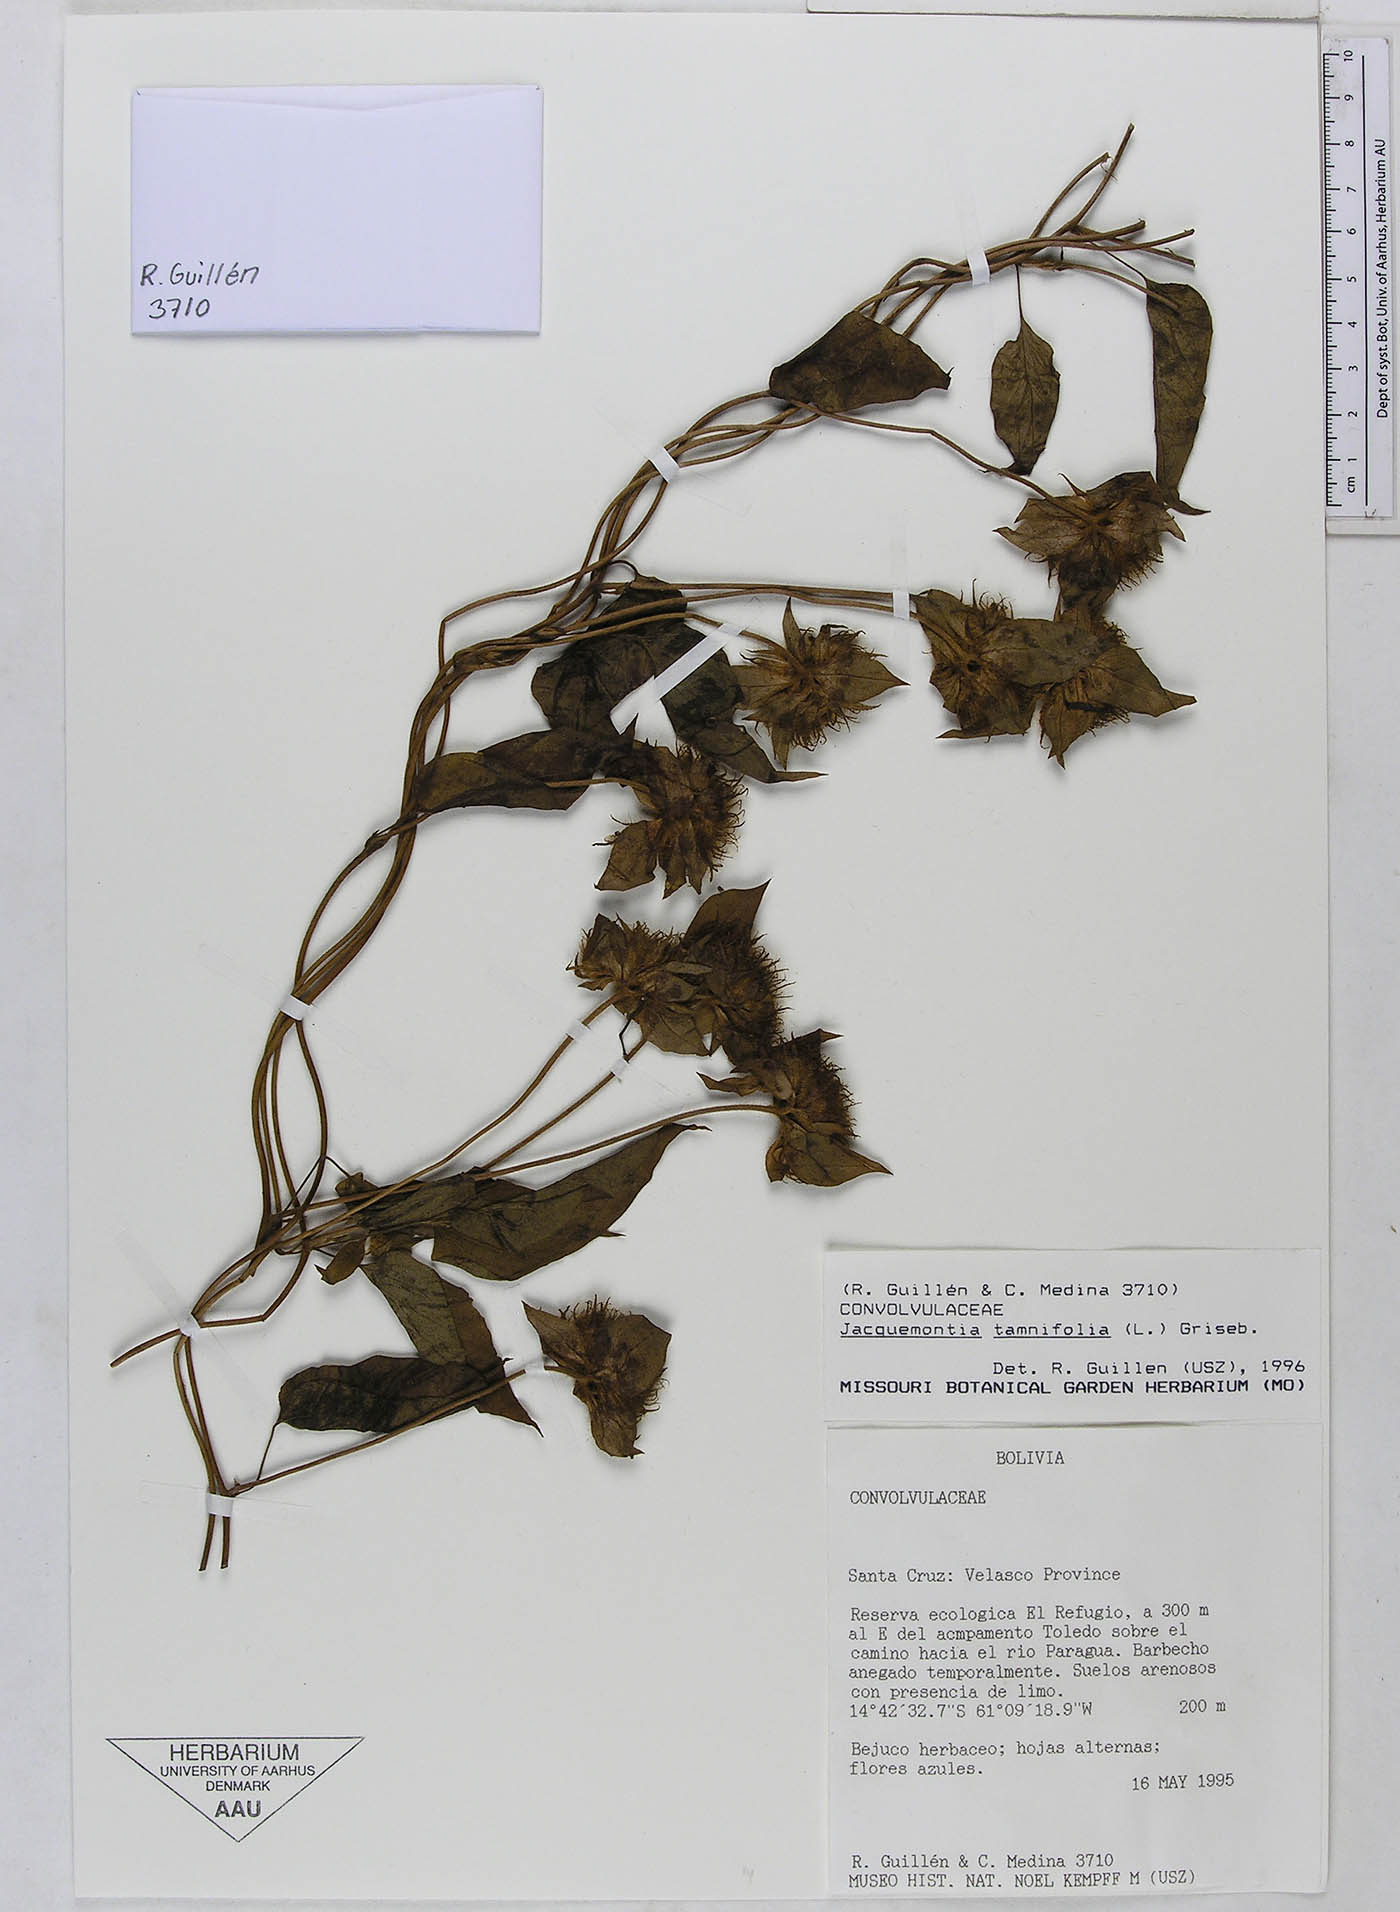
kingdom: Plantae
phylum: Tracheophyta
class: Magnoliopsida
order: Solanales
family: Convolvulaceae
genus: Jacquemontia
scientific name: Jacquemontia tamnifolia
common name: Hairy clustervine
